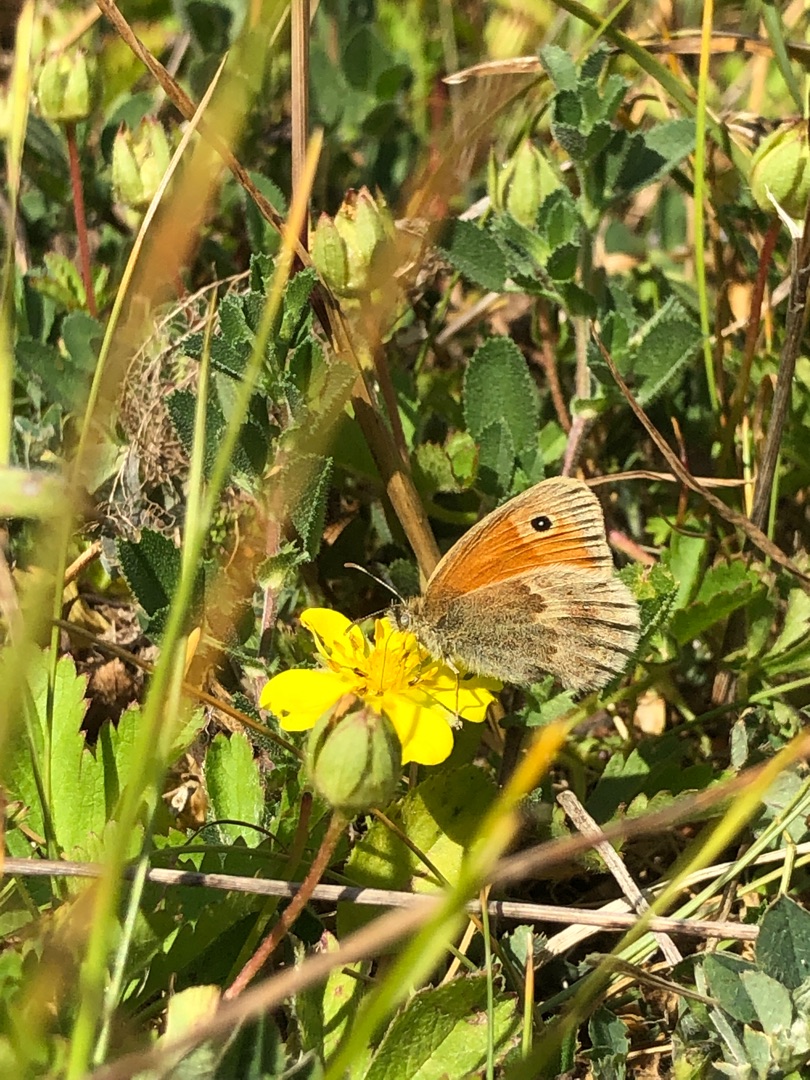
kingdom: Animalia
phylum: Arthropoda
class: Insecta
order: Lepidoptera
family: Nymphalidae
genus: Coenonympha
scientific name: Coenonympha pamphilus
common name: Okkergul randøje
